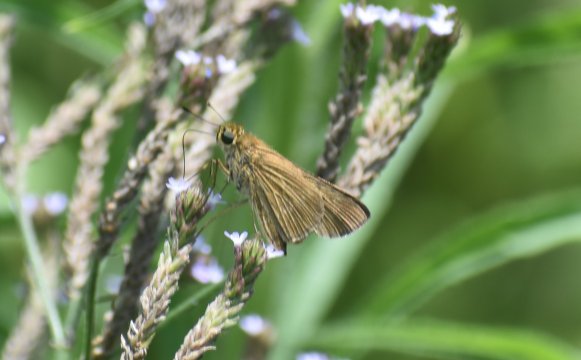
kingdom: Animalia
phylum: Arthropoda
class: Insecta
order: Lepidoptera
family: Hesperiidae
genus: Panoquina
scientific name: Panoquina ocola
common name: Ocola Skipper
